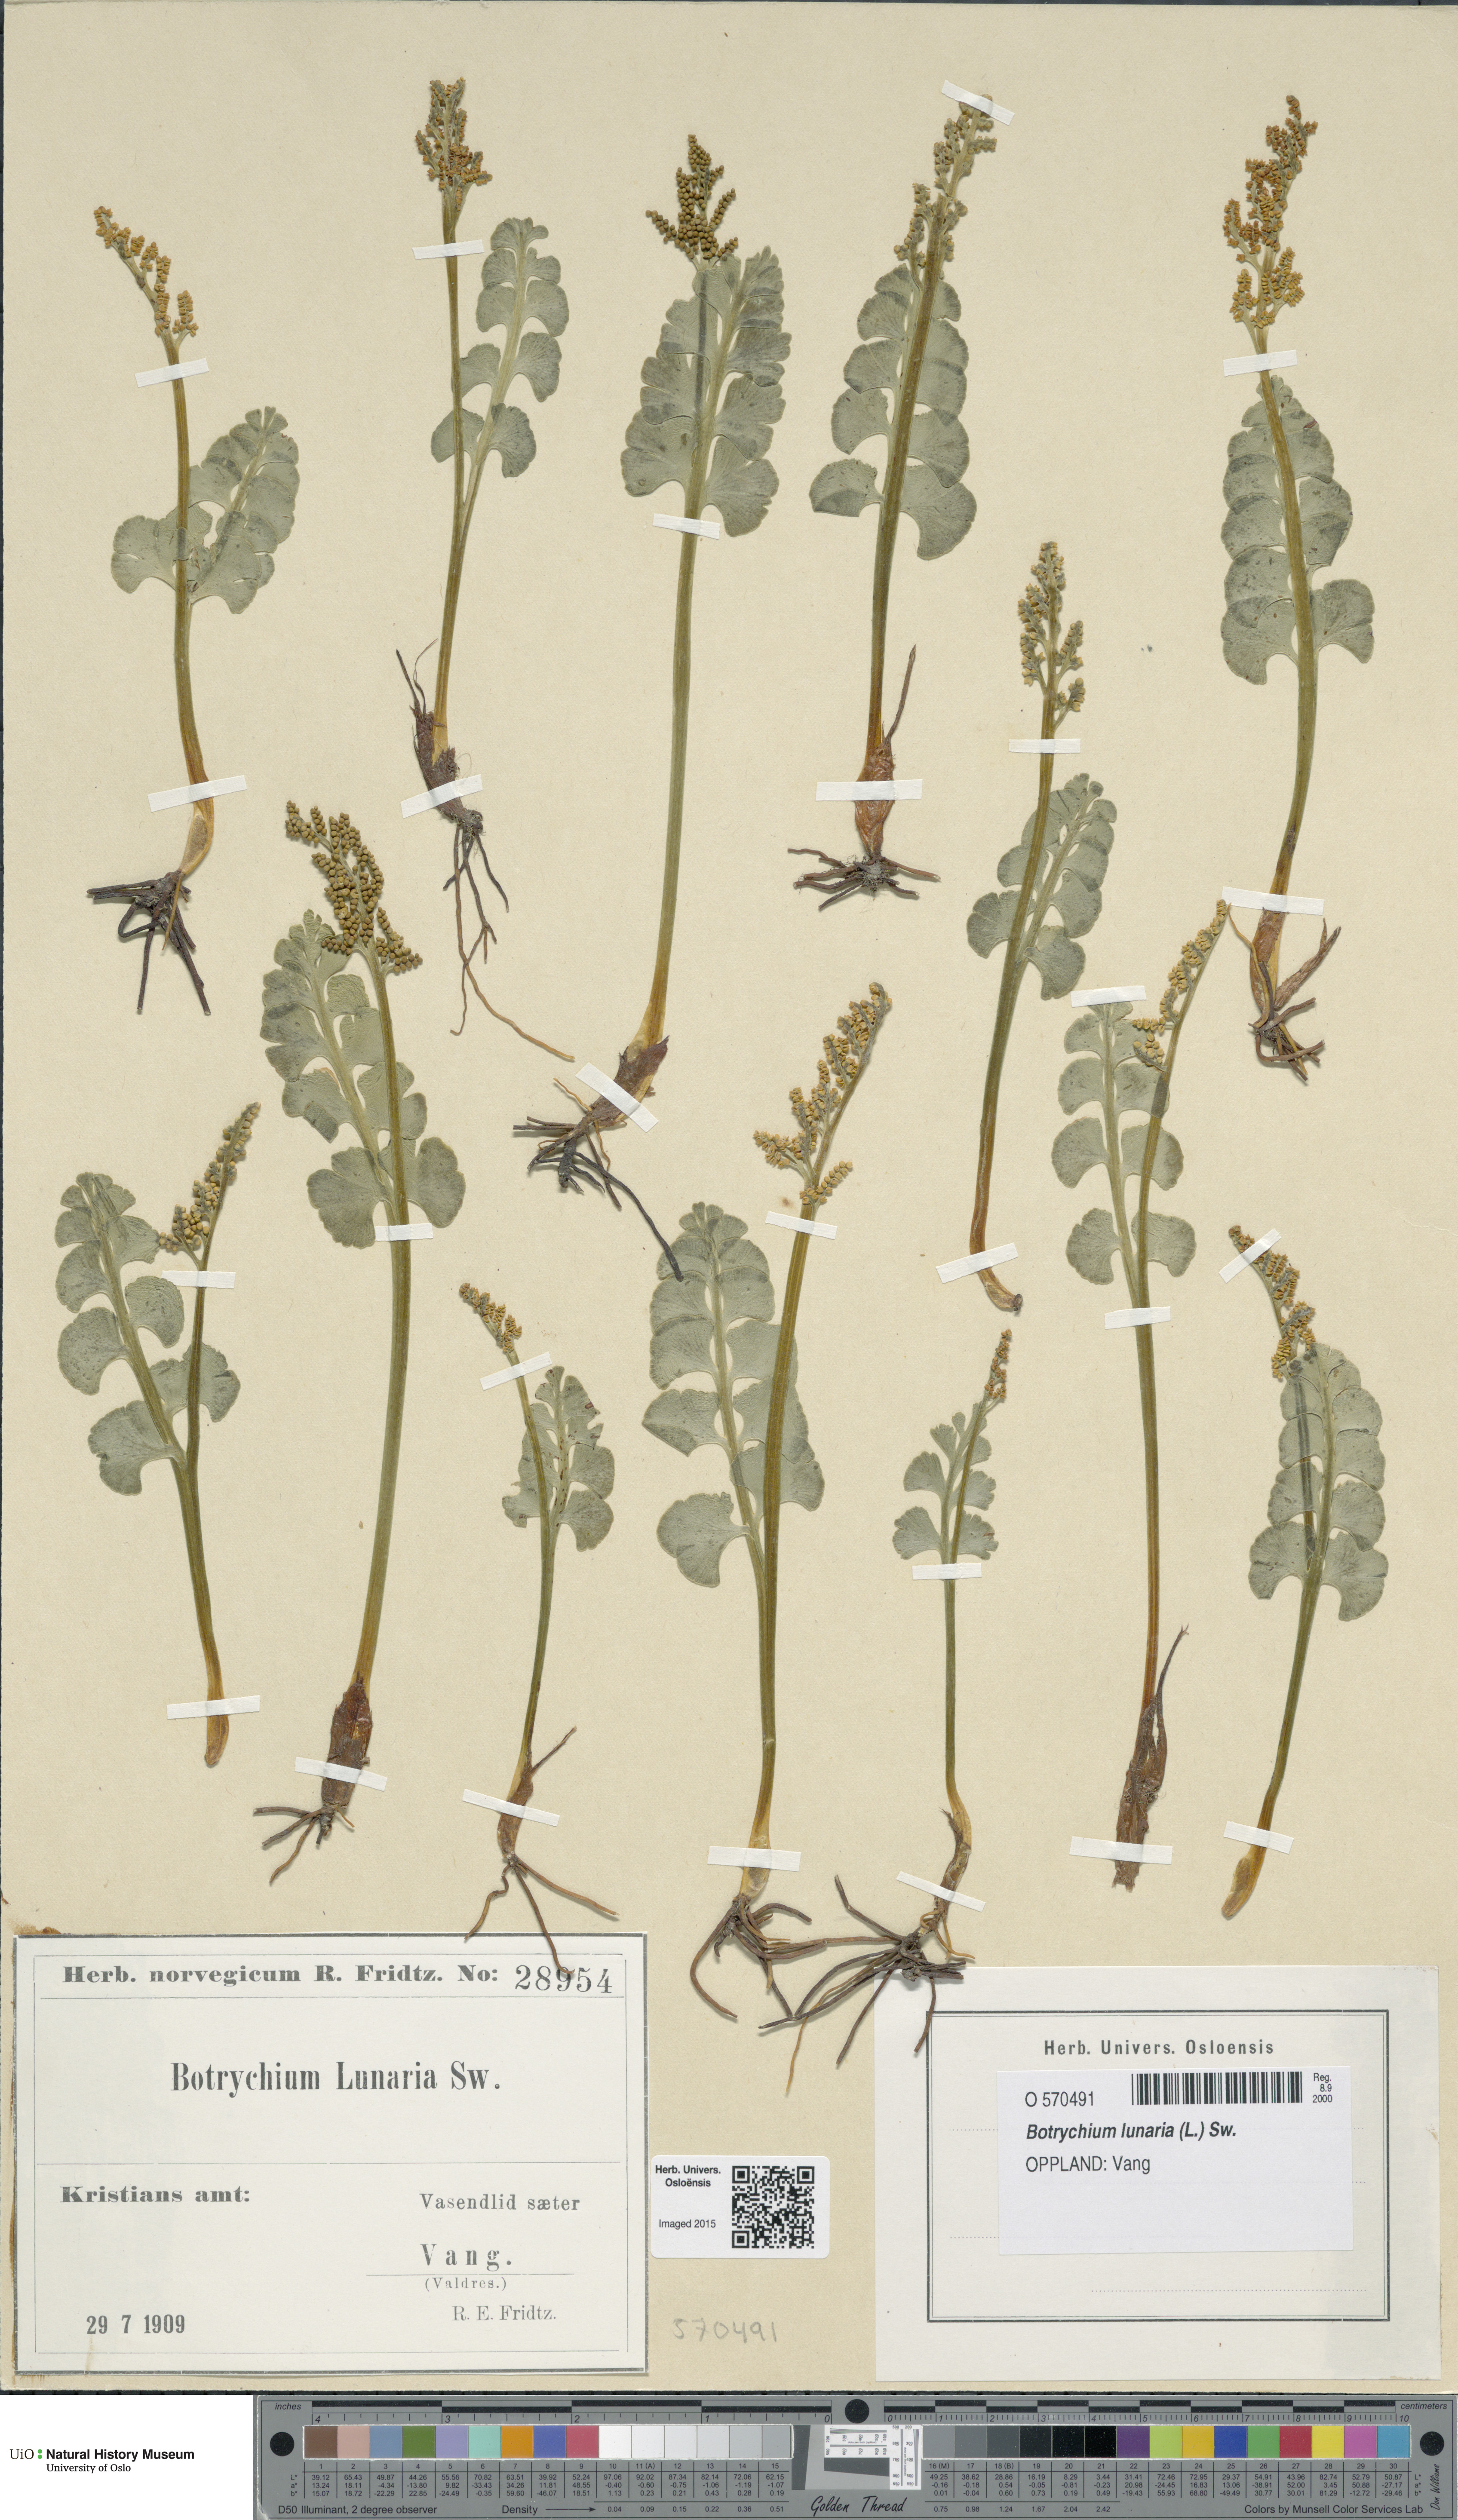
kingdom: Plantae
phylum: Tracheophyta
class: Polypodiopsida
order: Ophioglossales
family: Ophioglossaceae
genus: Botrychium
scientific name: Botrychium lunaria
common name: Moonwort
